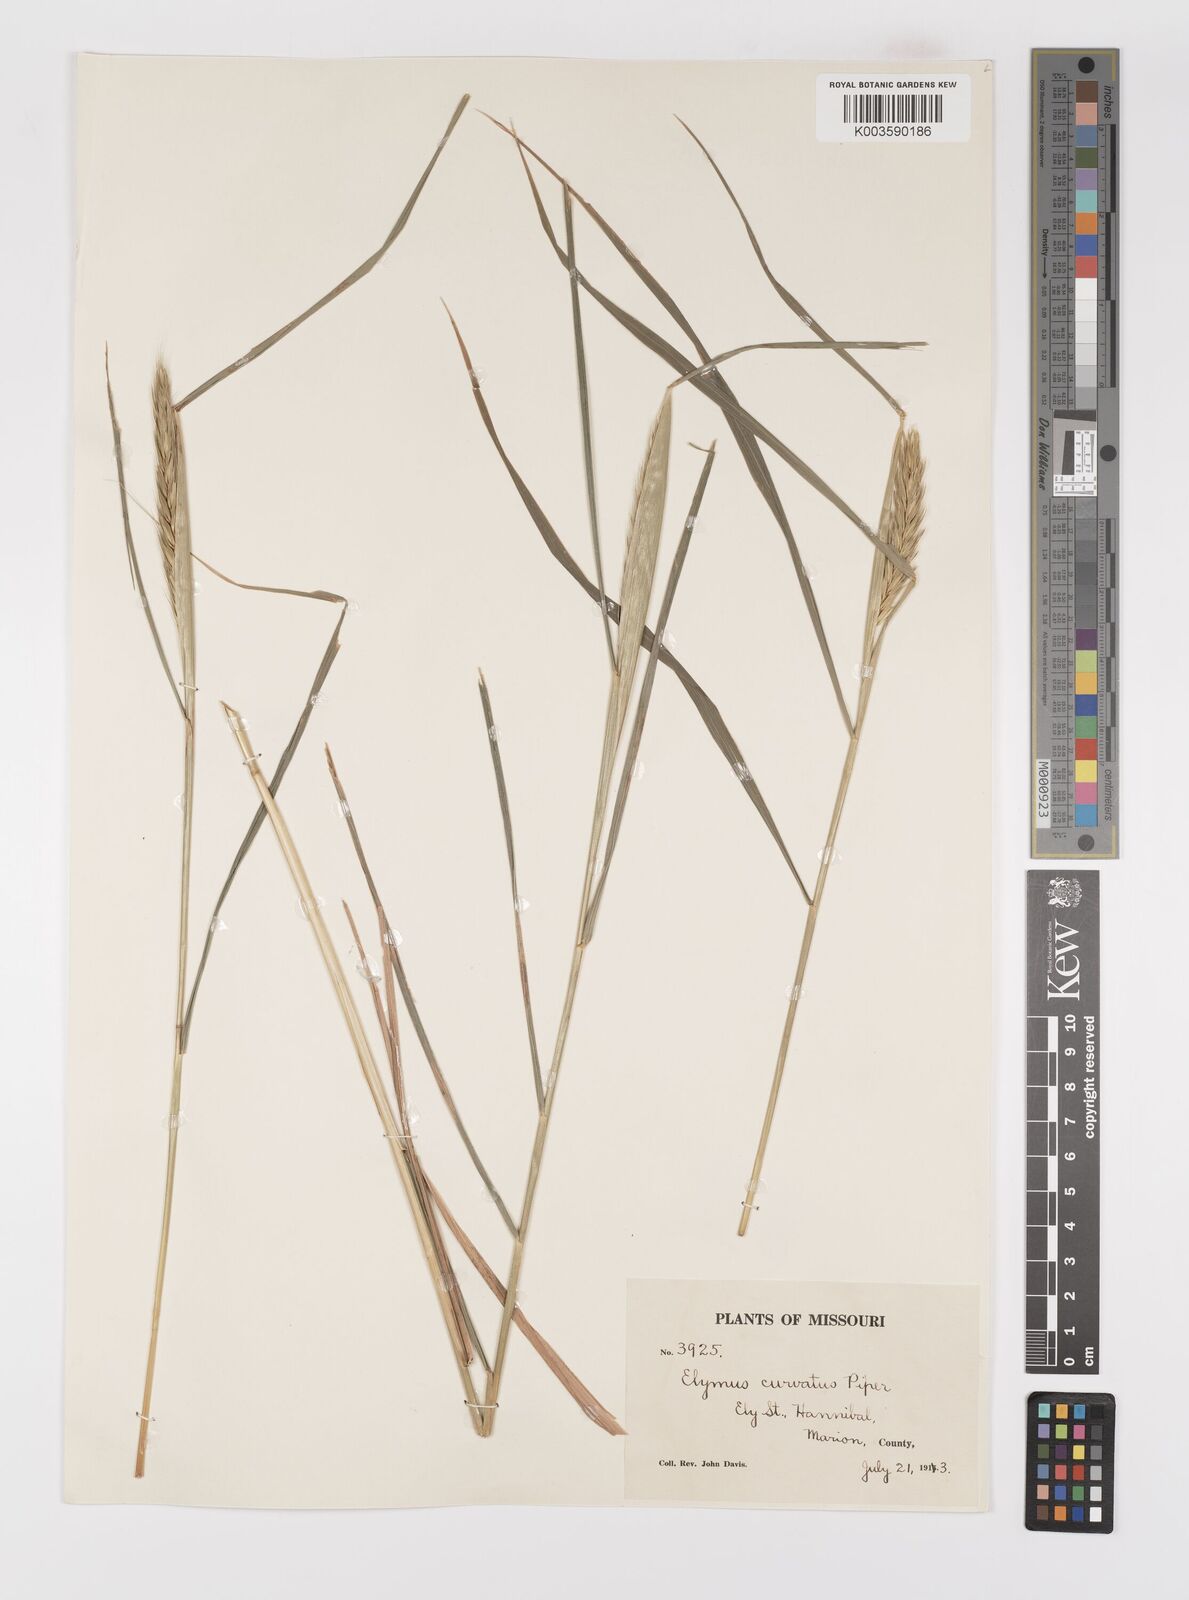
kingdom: Plantae
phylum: Tracheophyta
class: Liliopsida
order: Poales
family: Poaceae
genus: Elymus
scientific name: Elymus curvatus
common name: Awnless wild rye
